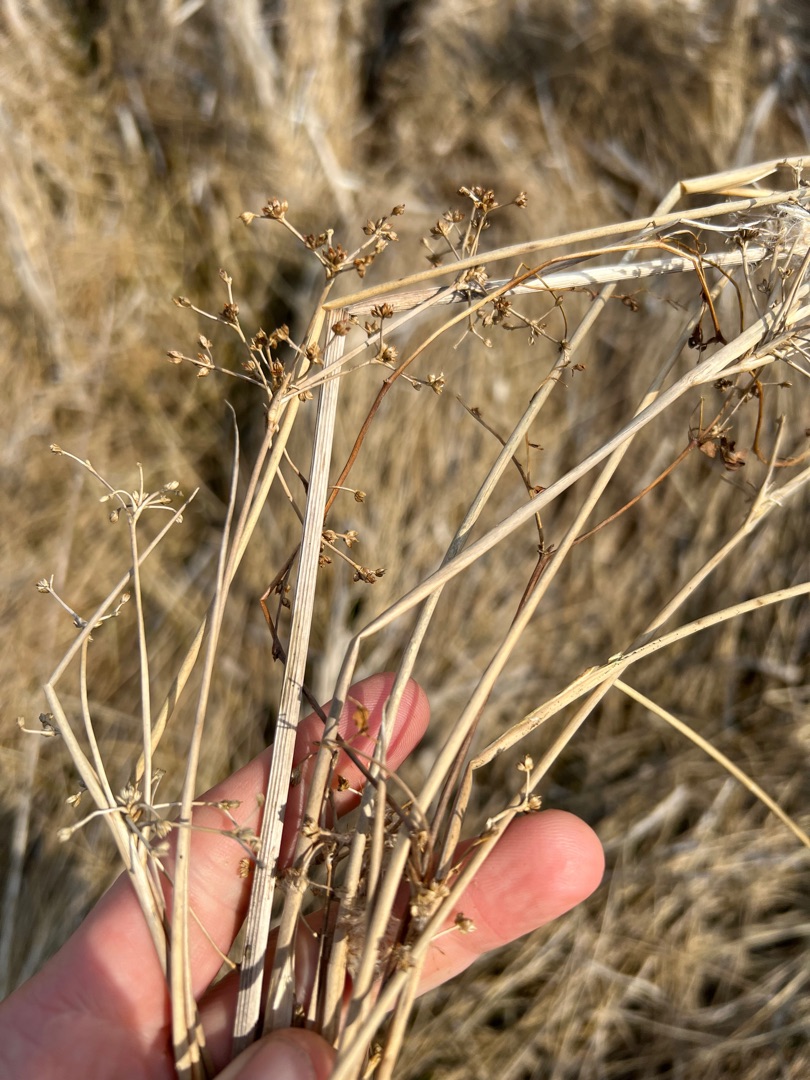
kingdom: Plantae
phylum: Tracheophyta
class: Liliopsida
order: Poales
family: Juncaceae
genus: Juncus
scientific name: Juncus subnodulosus
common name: Butblomstret siv
